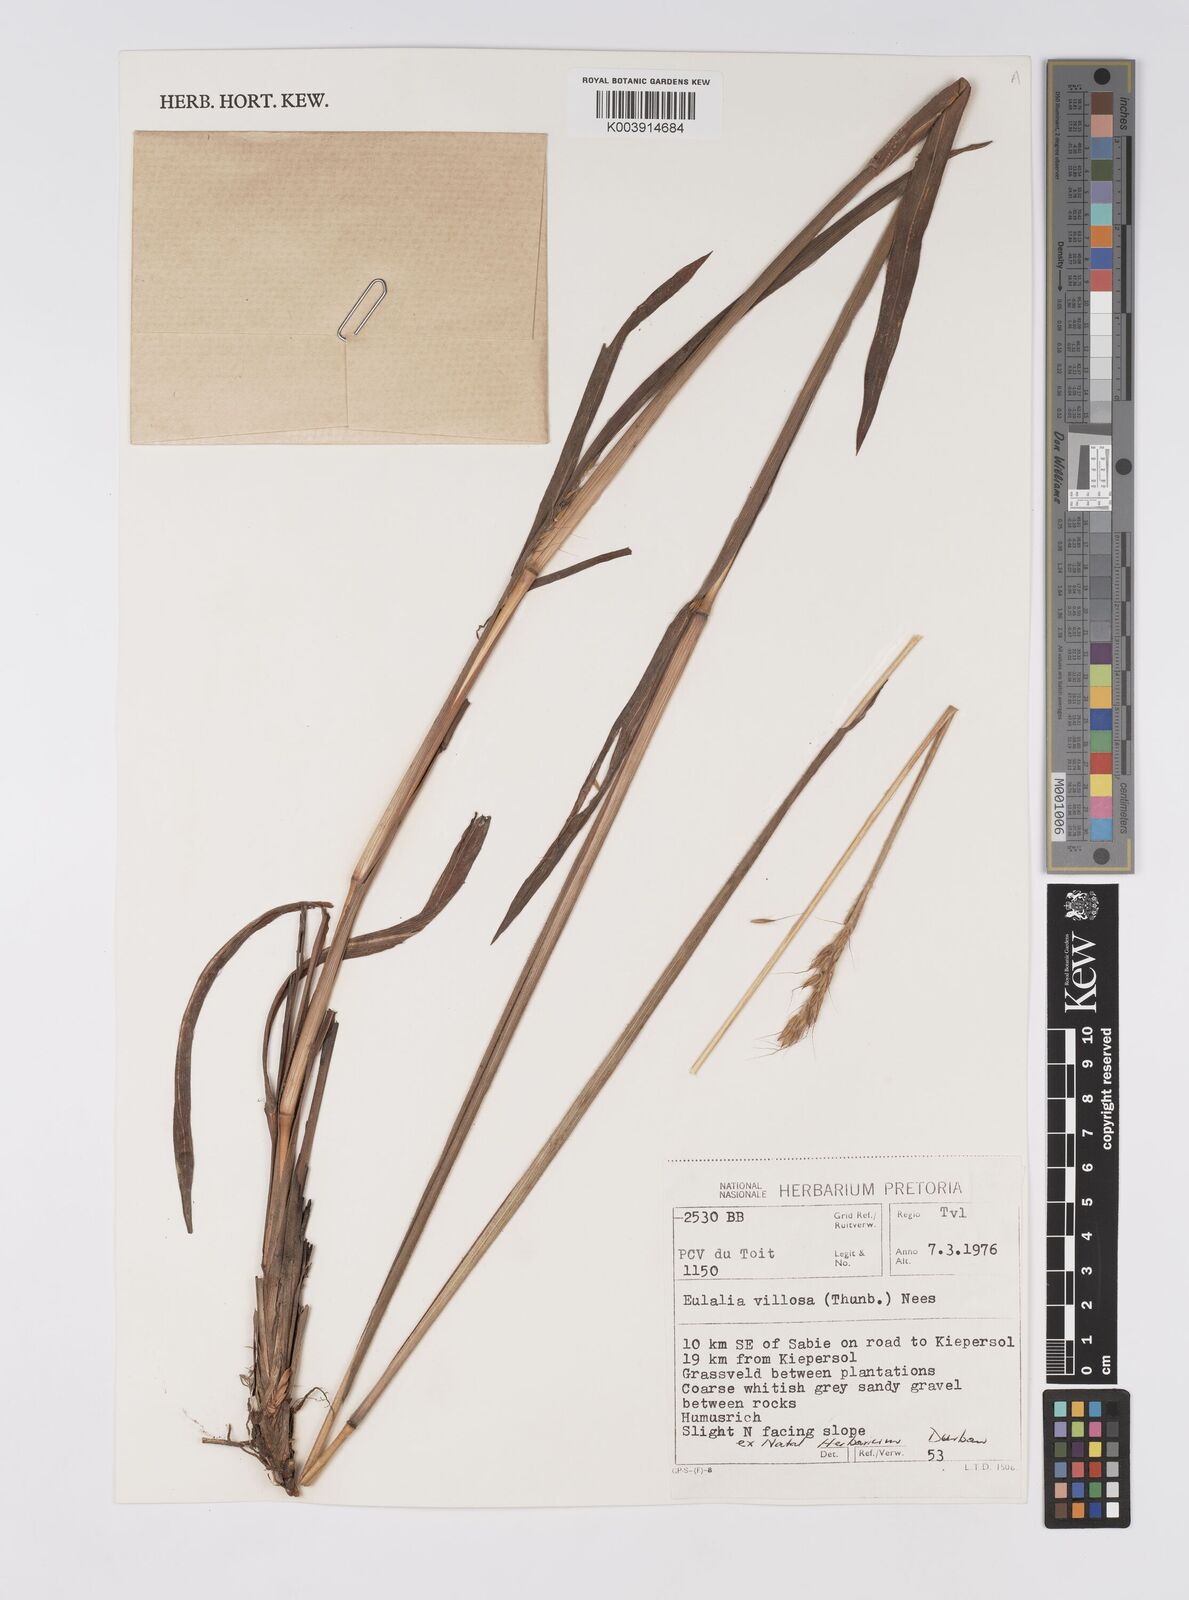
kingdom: Plantae
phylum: Tracheophyta
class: Liliopsida
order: Poales
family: Poaceae
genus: Eulalia
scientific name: Eulalia villosa
